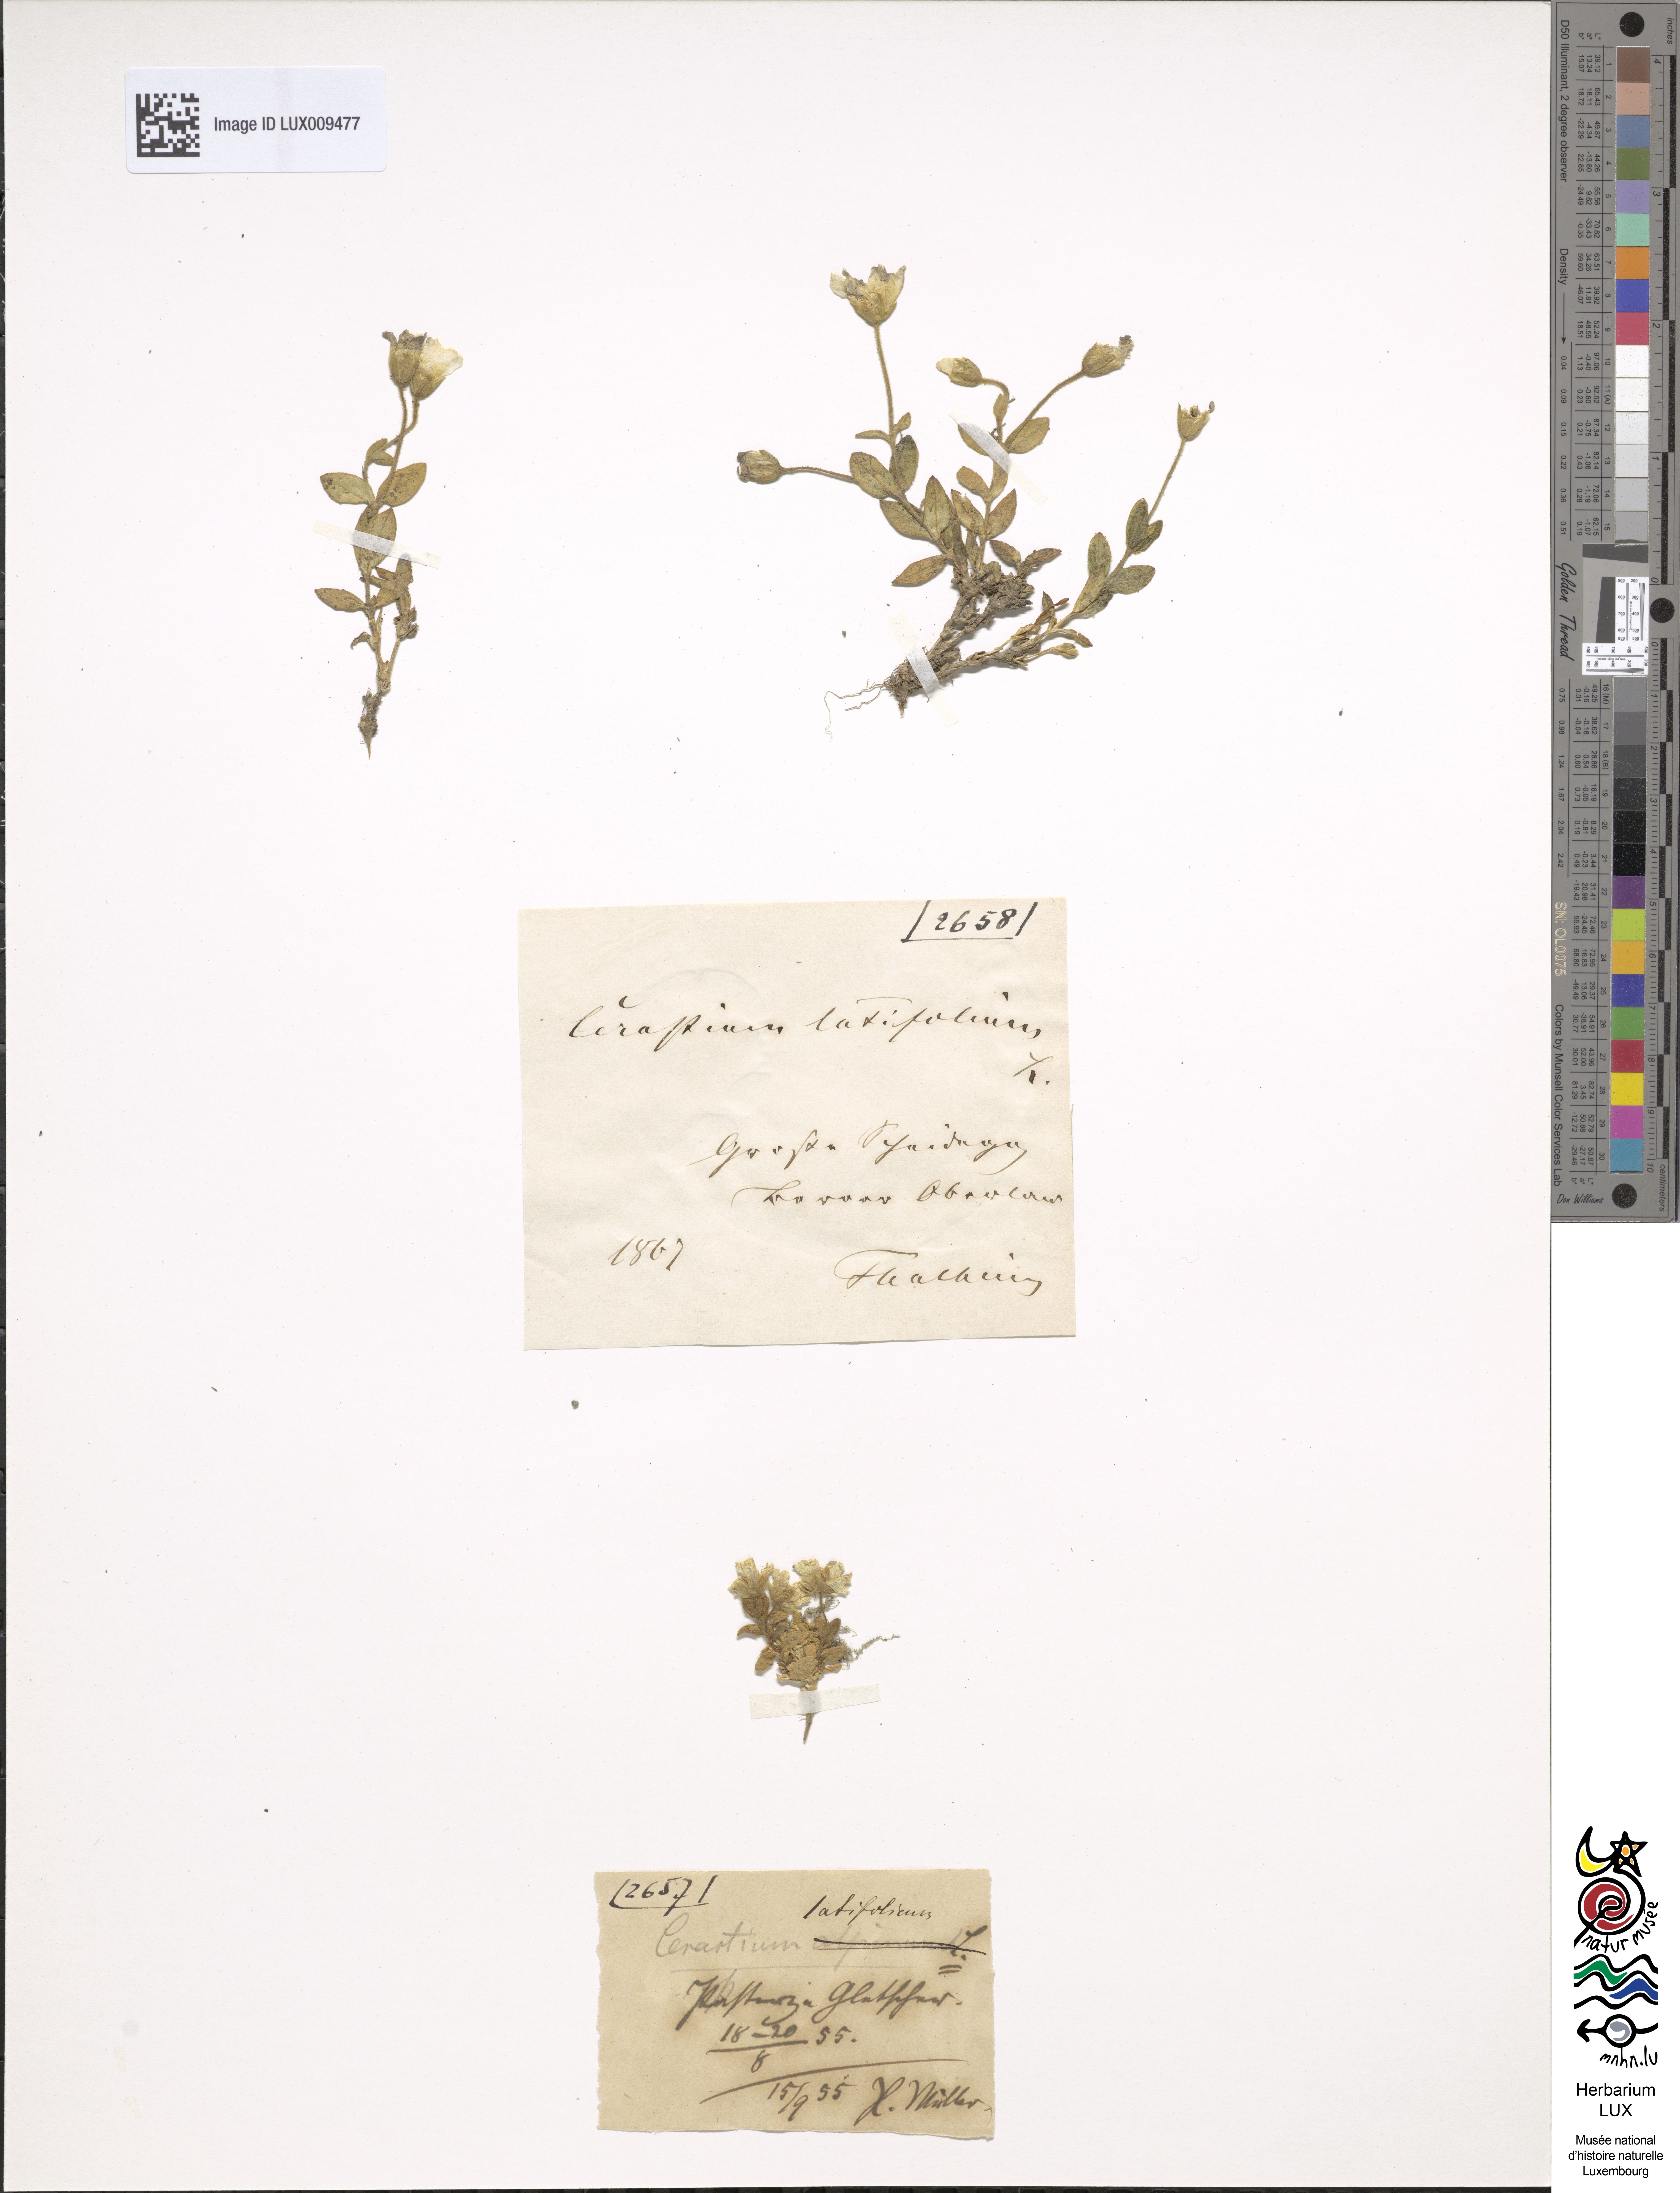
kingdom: Plantae
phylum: Tracheophyta
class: Magnoliopsida
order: Caryophyllales
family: Caryophyllaceae
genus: Cerastium
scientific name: Cerastium latifolium
